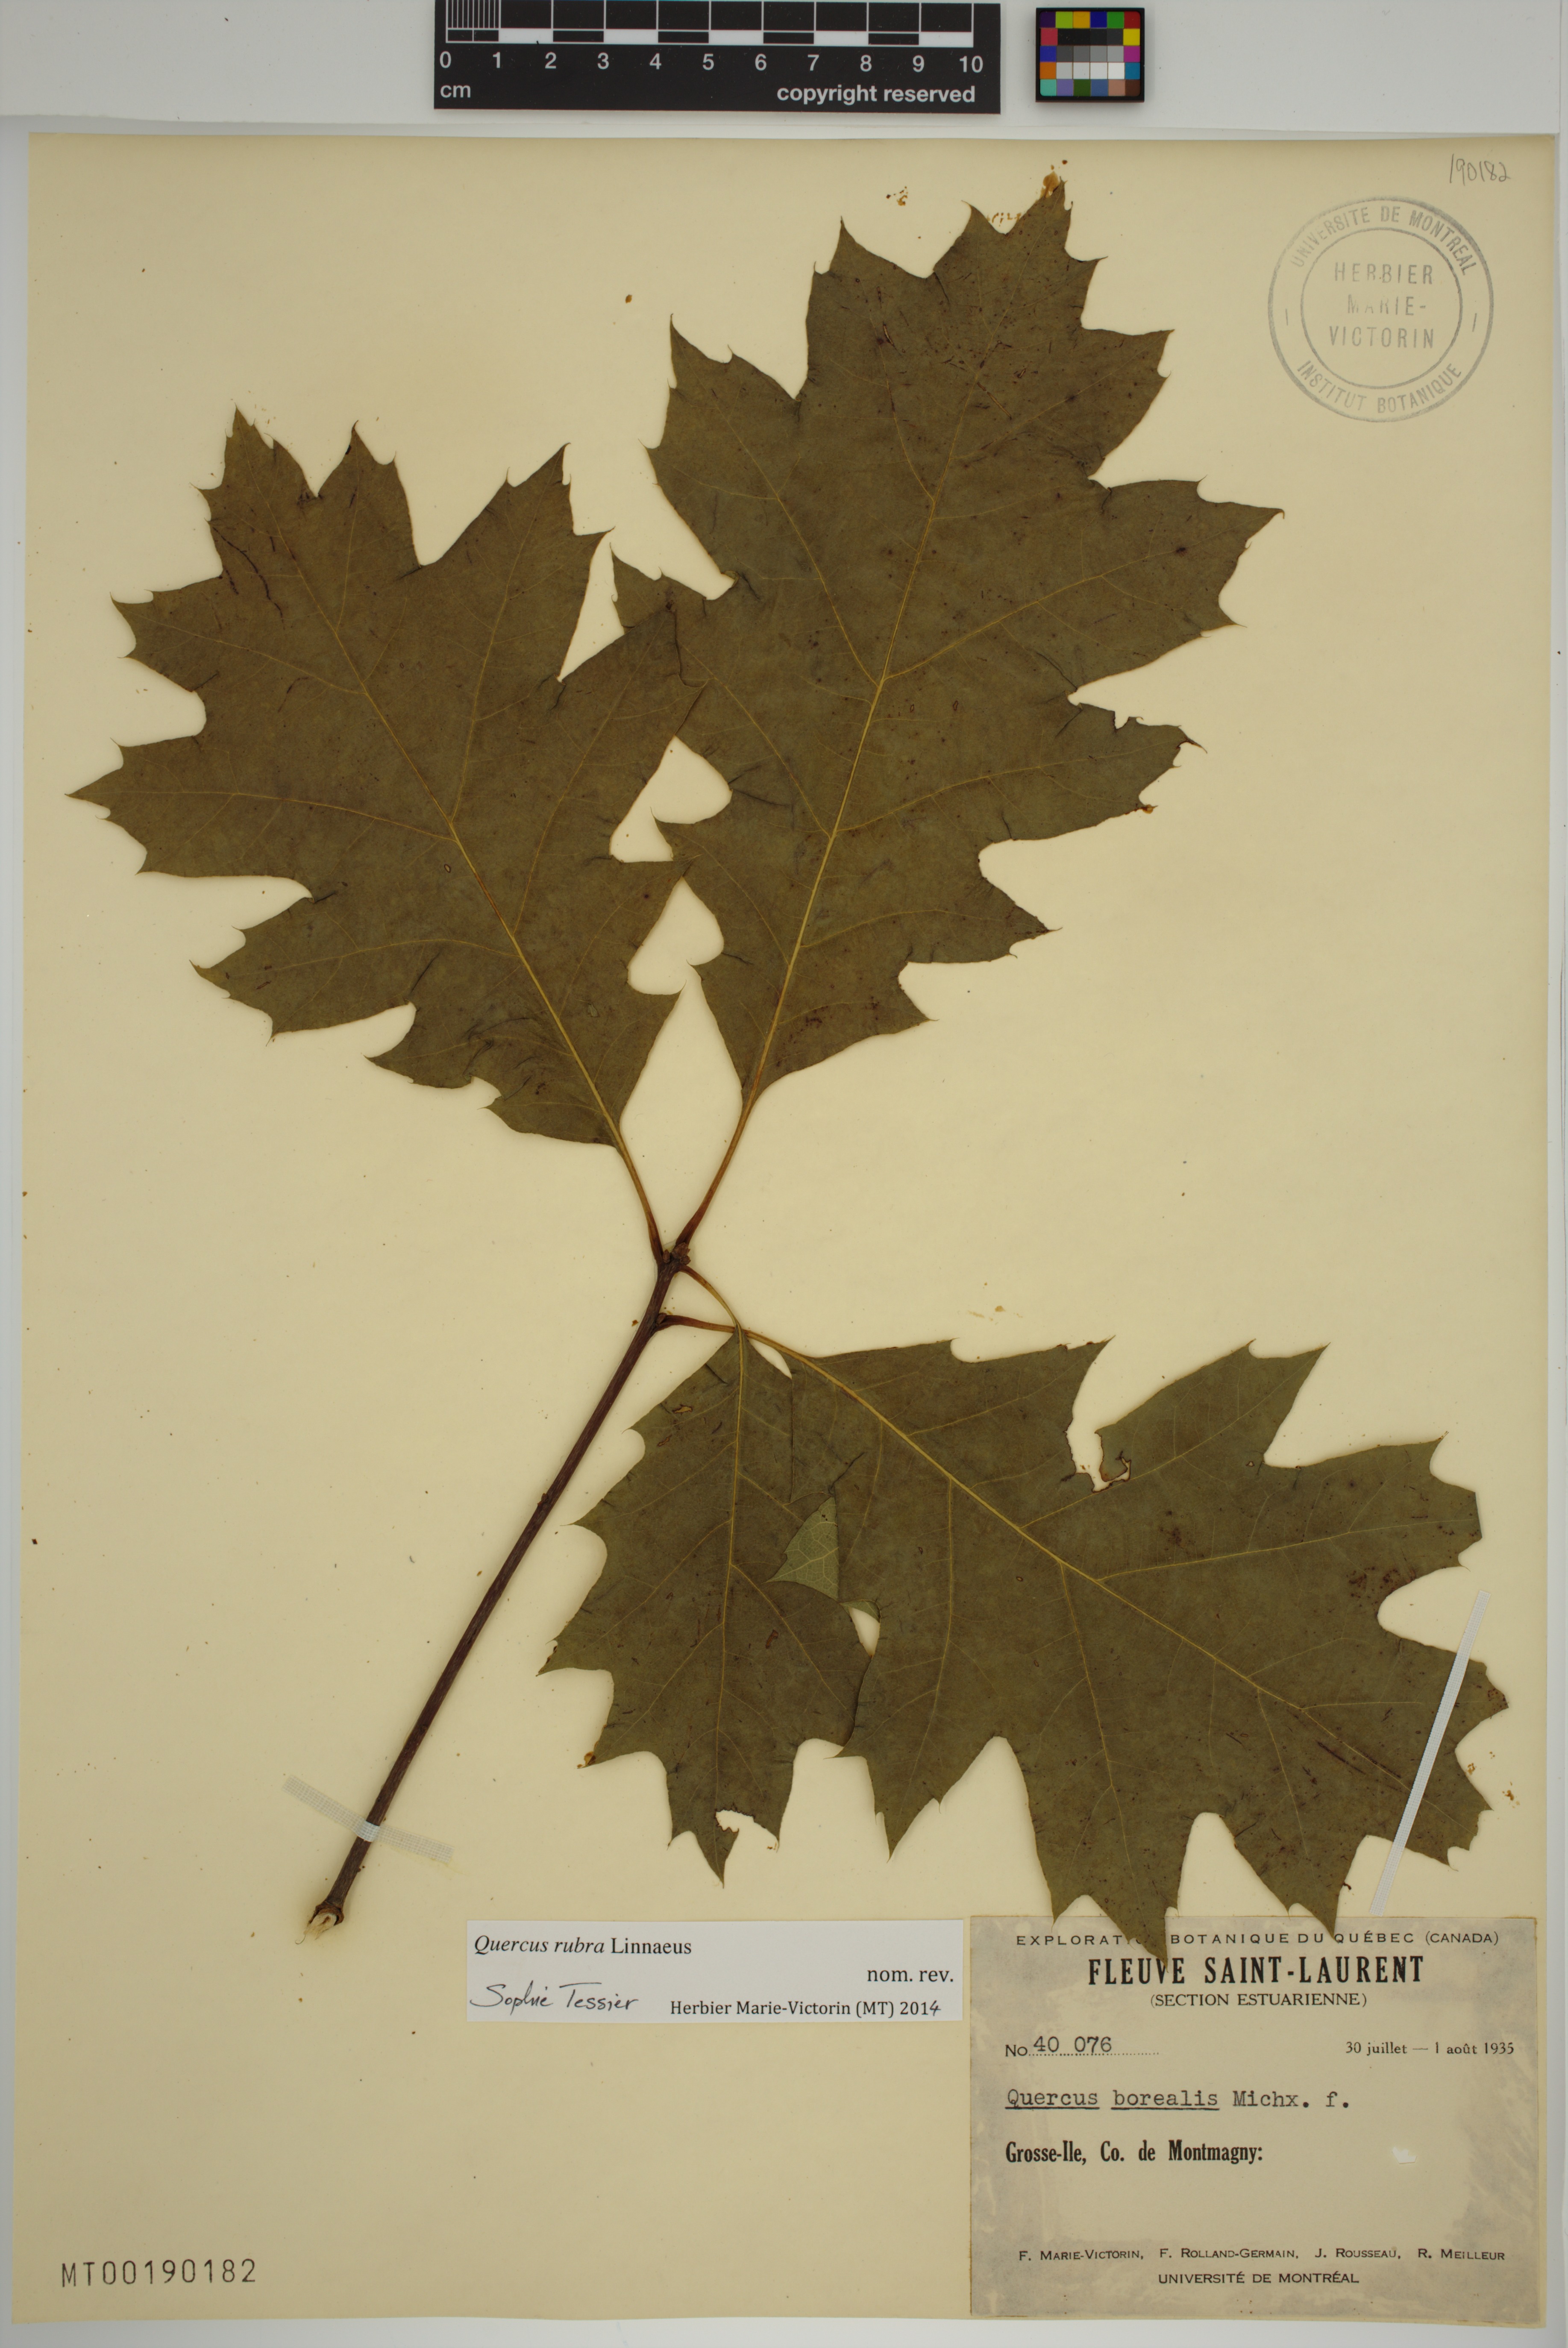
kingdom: Plantae
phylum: Tracheophyta
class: Magnoliopsida
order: Fagales
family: Fagaceae
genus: Quercus
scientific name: Quercus rubra
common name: Red oak
